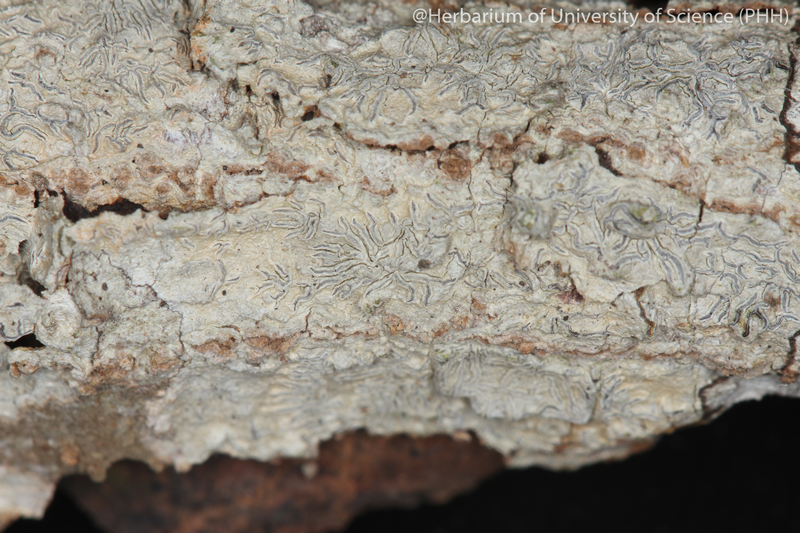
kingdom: Fungi
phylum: Ascomycota
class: Lecanoromycetes
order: Ostropales
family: Graphidaceae
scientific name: Graphidaceae
